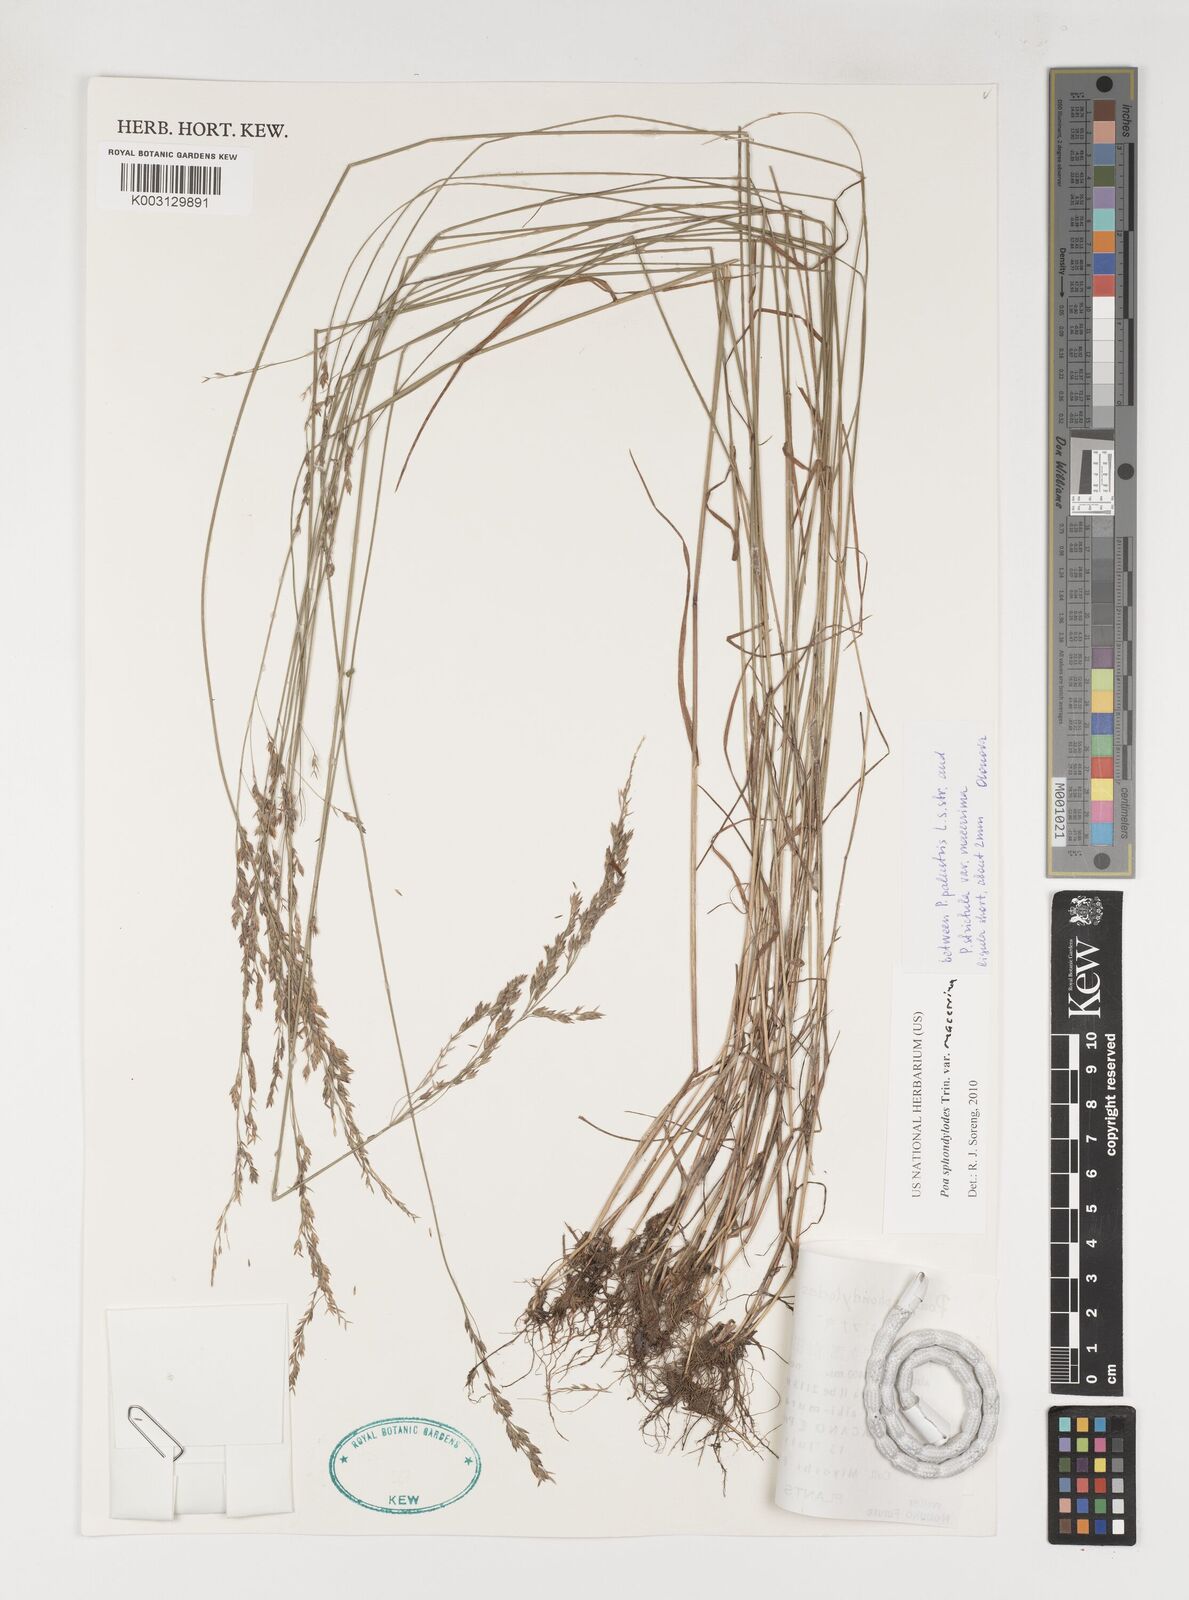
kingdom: Plantae
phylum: Tracheophyta
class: Liliopsida
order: Poales
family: Poaceae
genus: Poa
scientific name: Poa sphondylodes
